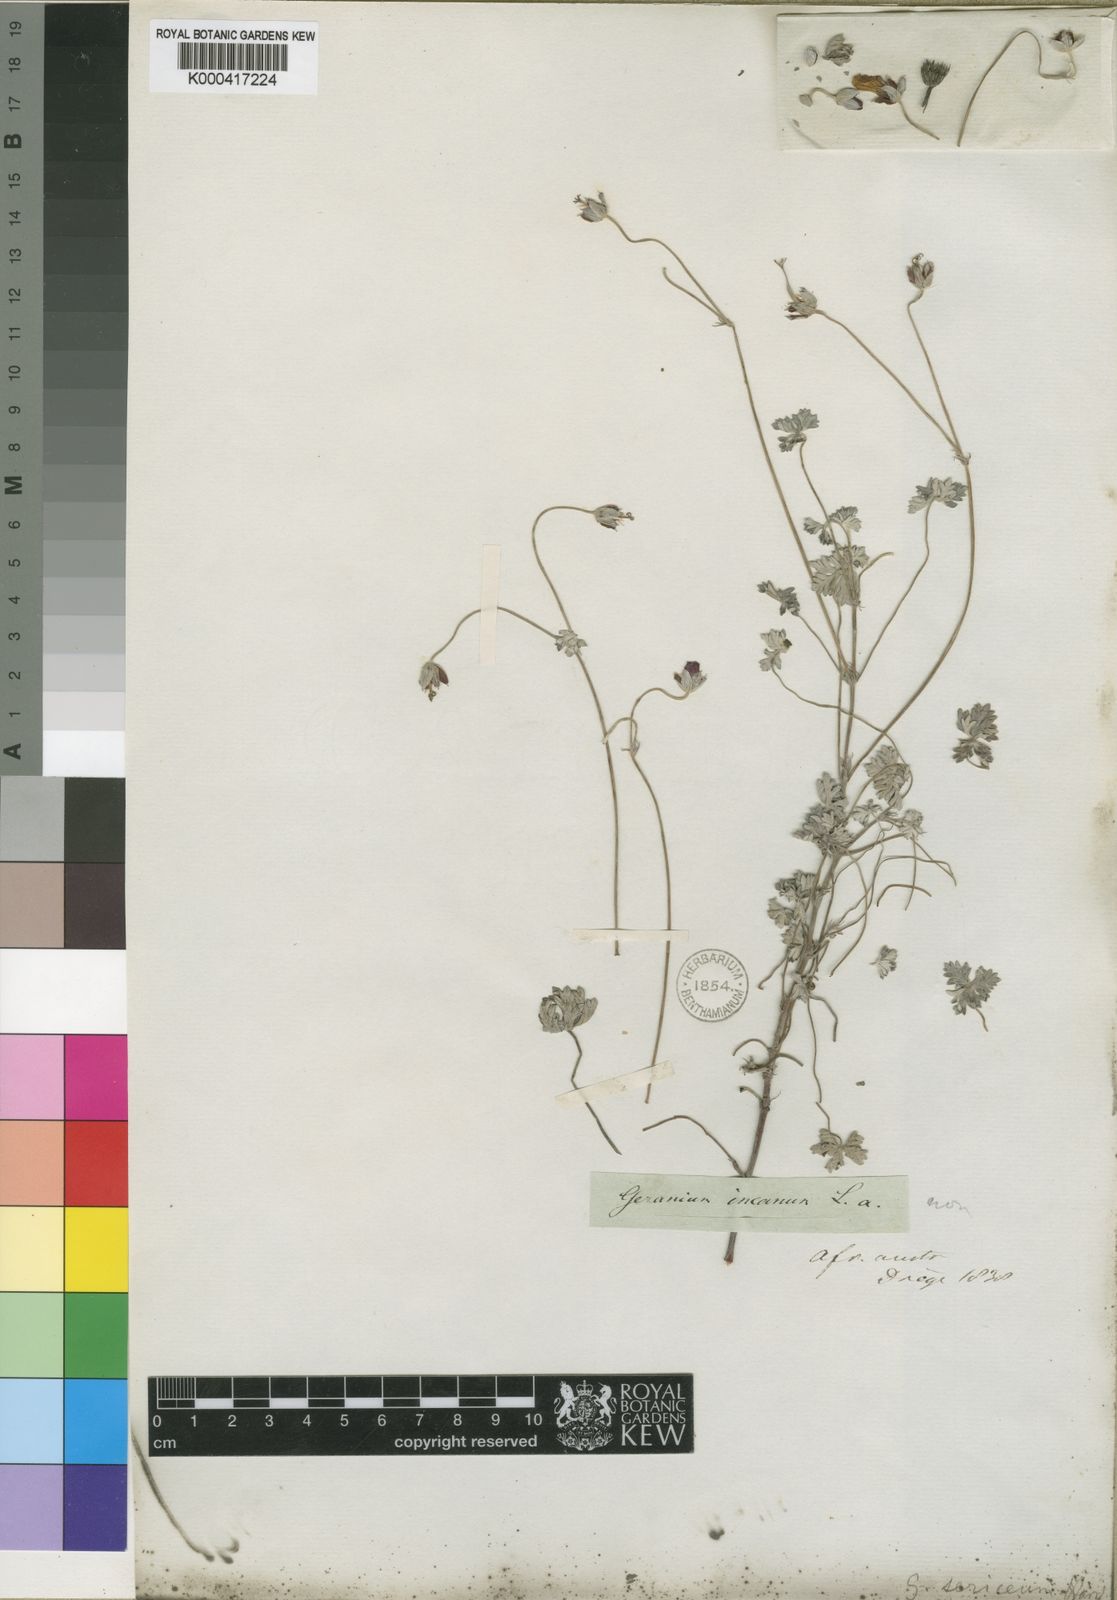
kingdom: Plantae
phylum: Tracheophyta
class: Magnoliopsida
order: Geraniales
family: Geraniaceae
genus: Geranium
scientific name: Geranium harveyi
